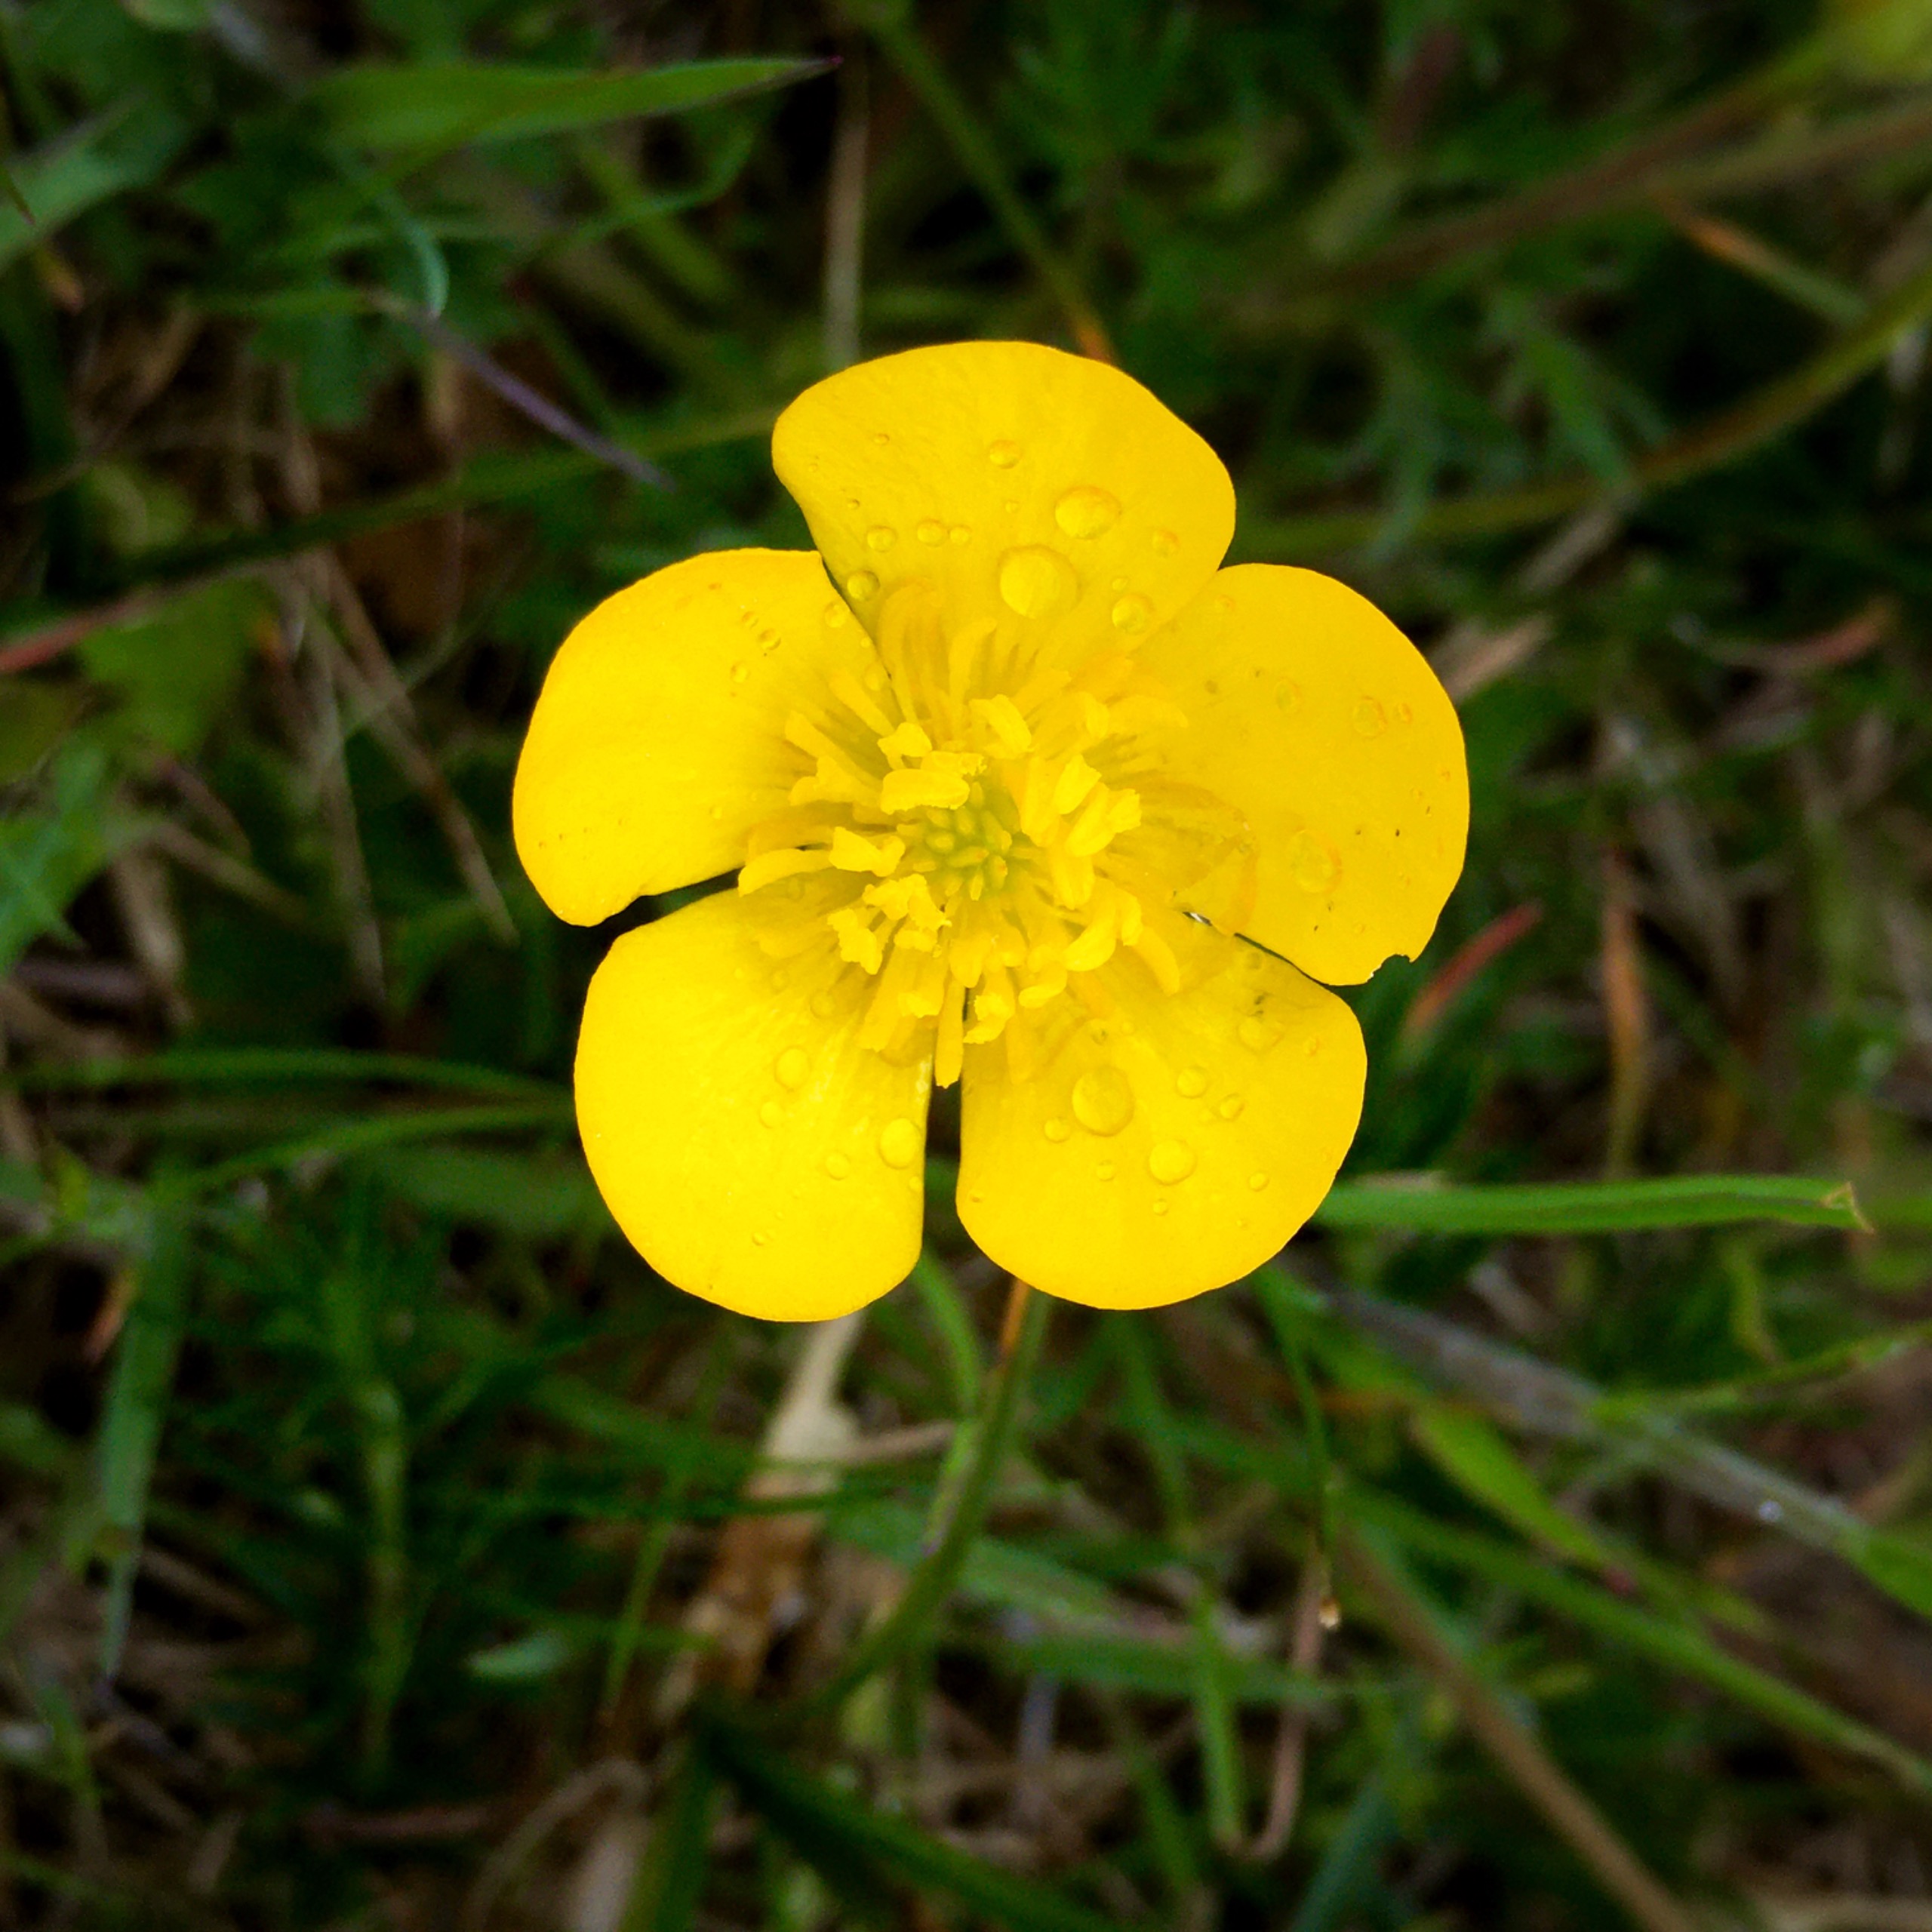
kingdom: Plantae
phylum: Tracheophyta
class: Magnoliopsida
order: Ranunculales
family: Ranunculaceae
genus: Ranunculus
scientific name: Ranunculus bulbosus
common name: Knold-ranunkel
